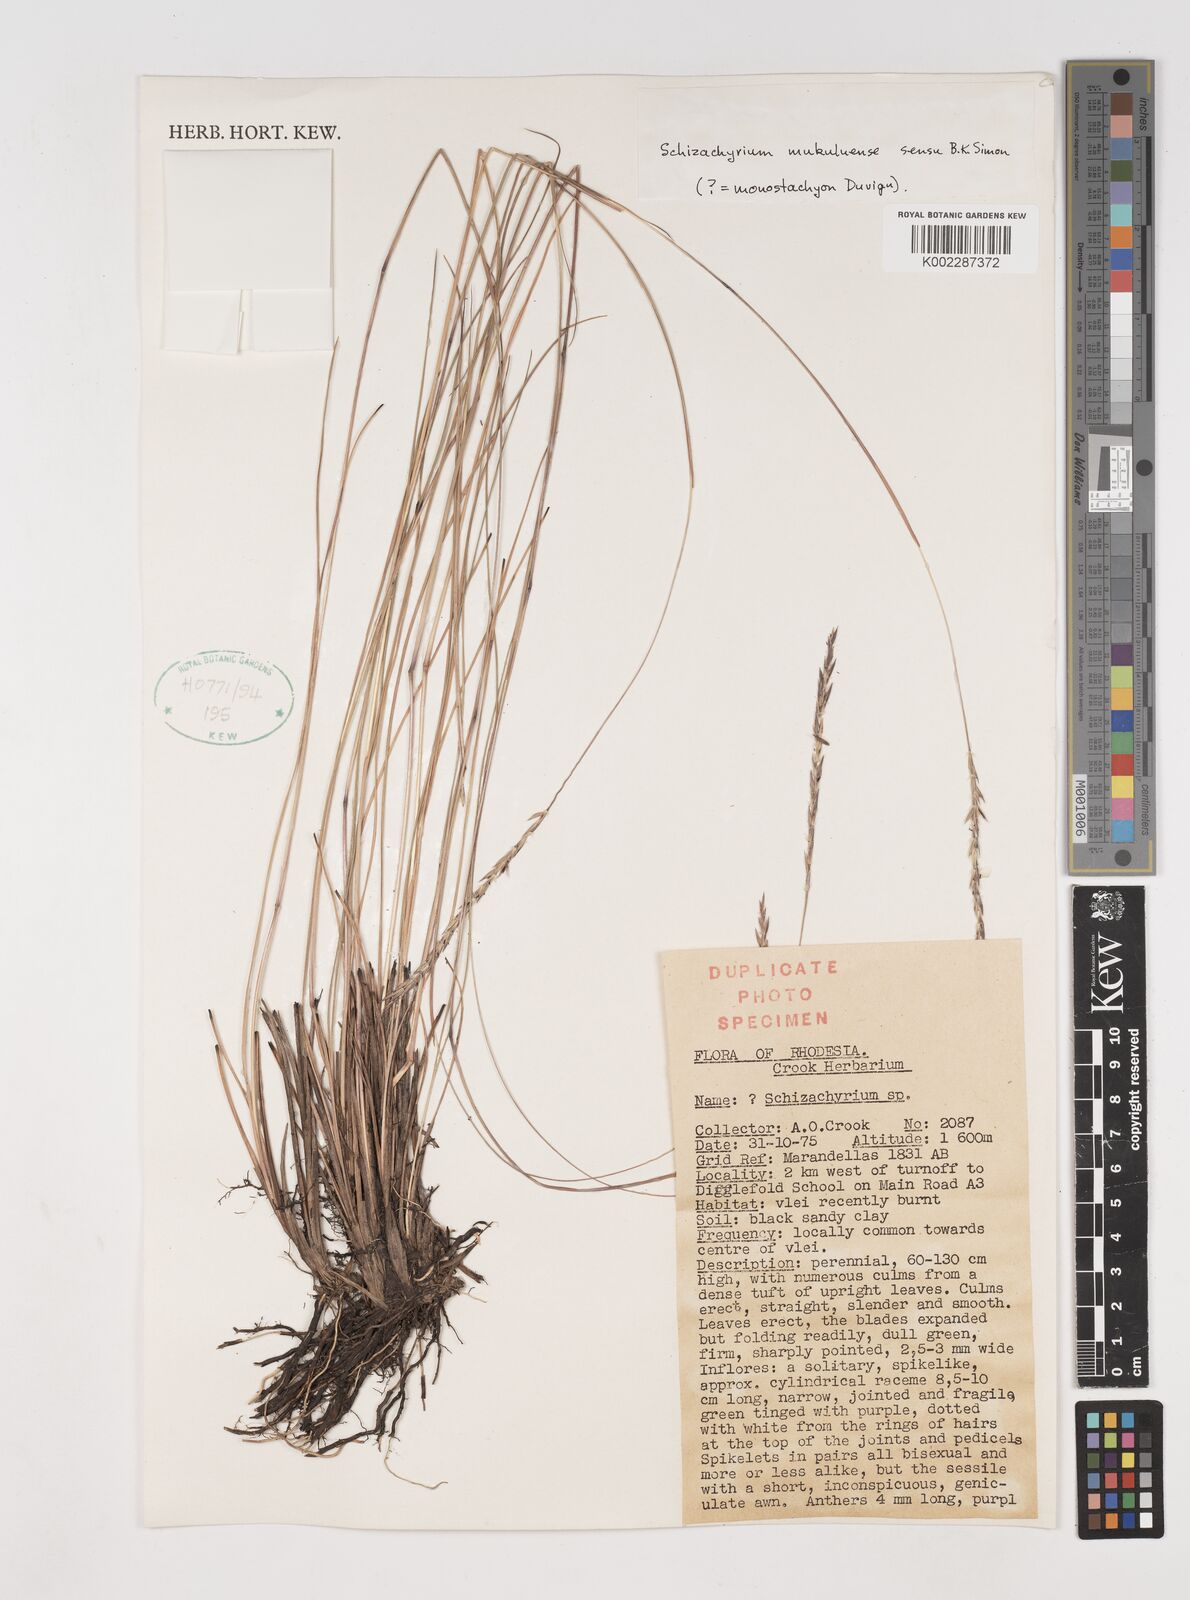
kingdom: Plantae
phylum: Tracheophyta
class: Liliopsida
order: Poales
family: Poaceae
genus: Schizachyrium
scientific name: Schizachyrium thollonii
